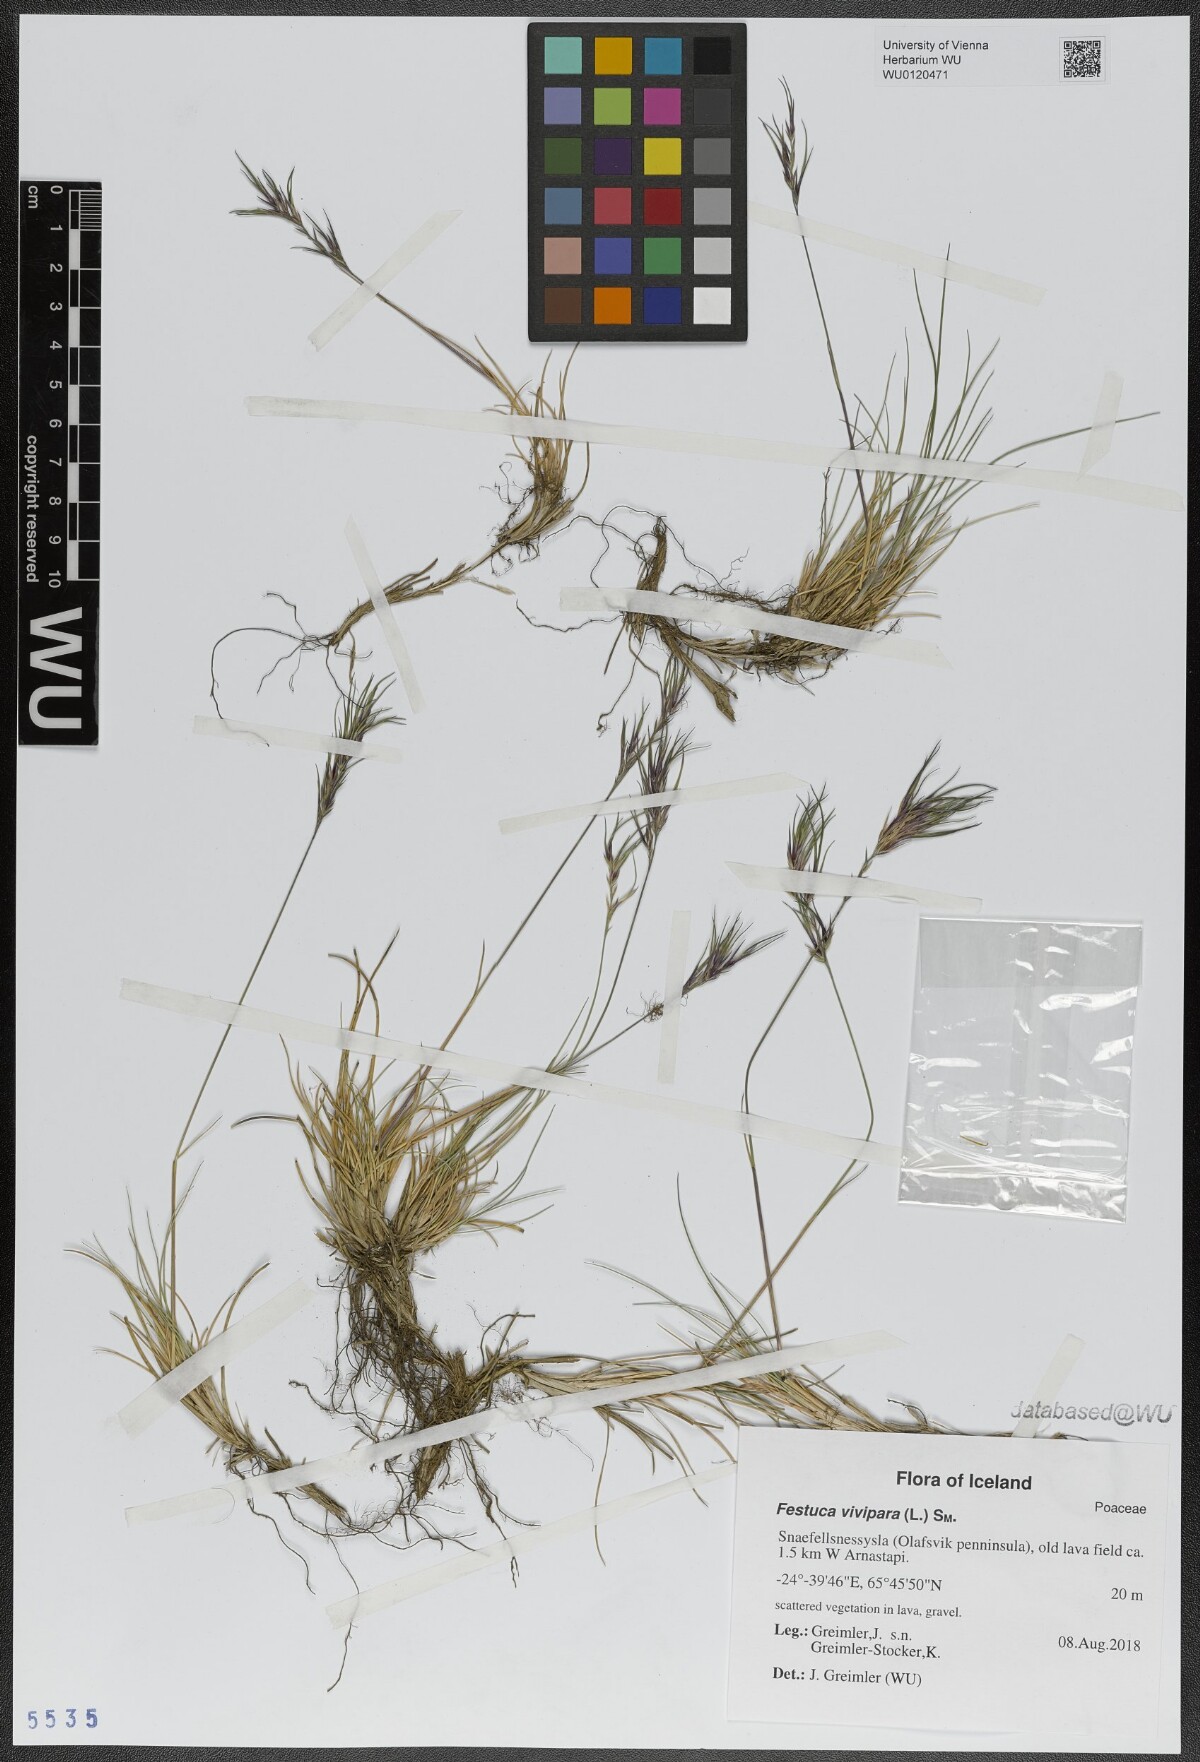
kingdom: Plantae
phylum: Tracheophyta
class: Liliopsida
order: Poales
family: Poaceae
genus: Festuca
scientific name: Festuca vivipara
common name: Viviparous sheep's-fescue
